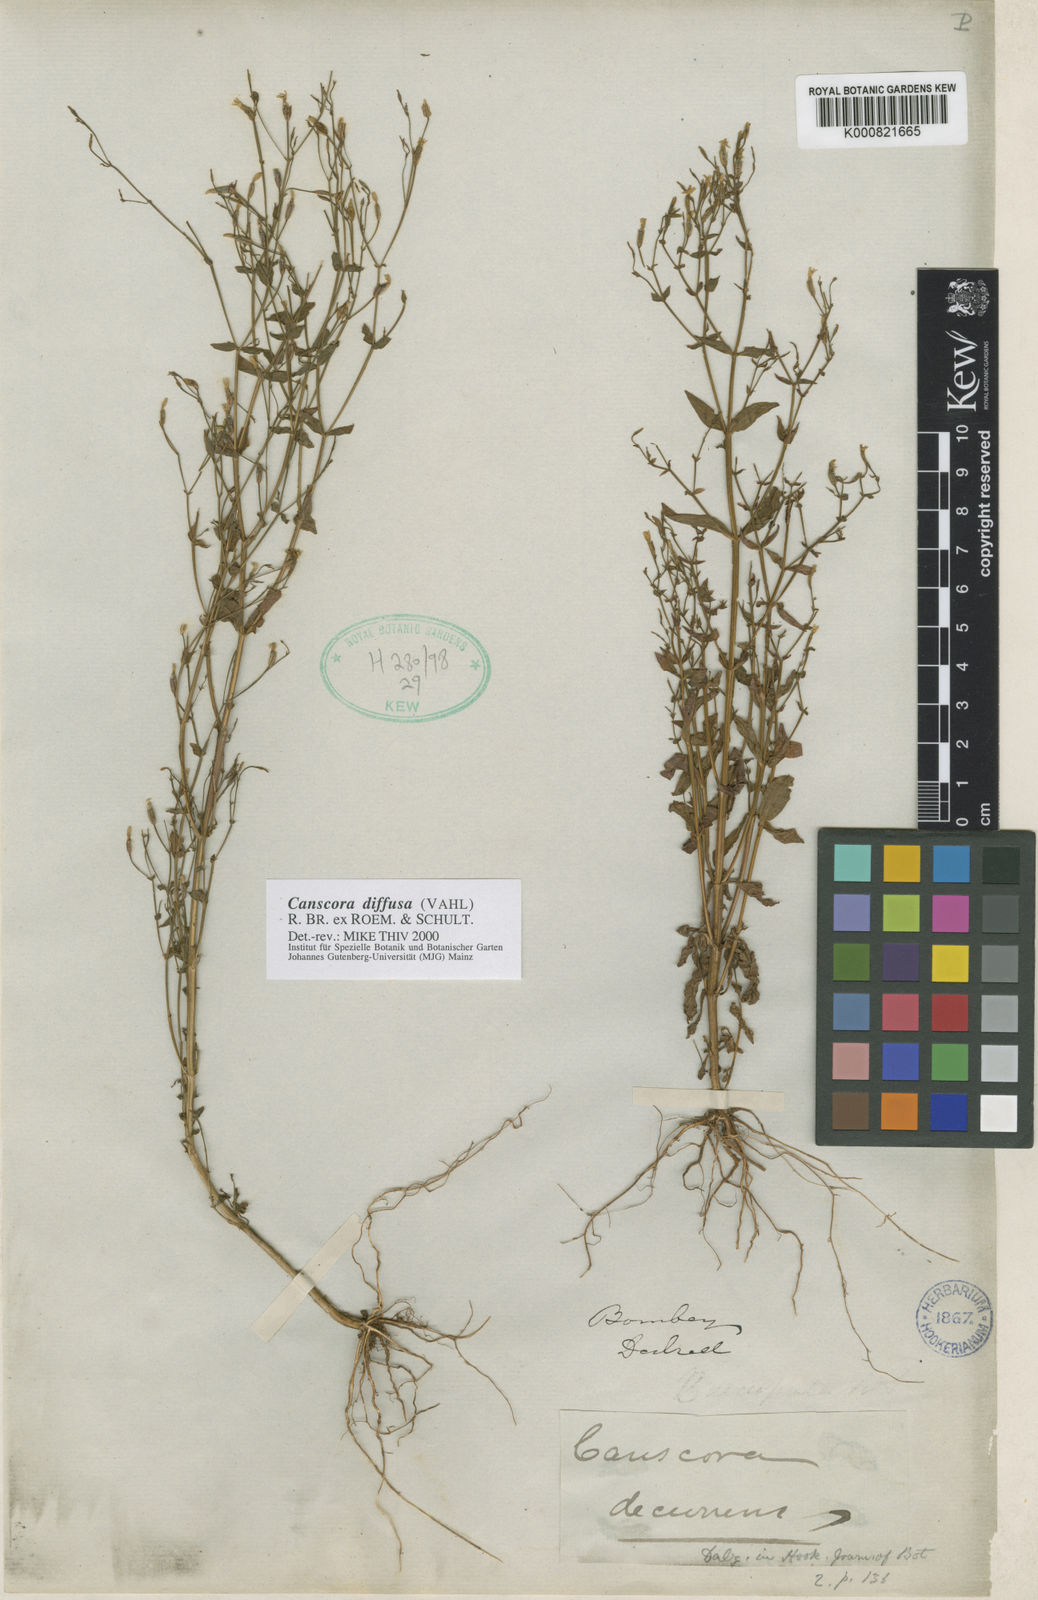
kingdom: Plantae
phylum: Tracheophyta
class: Magnoliopsida
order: Gentianales
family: Gentianaceae
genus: Canscora
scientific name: Canscora diffusa
